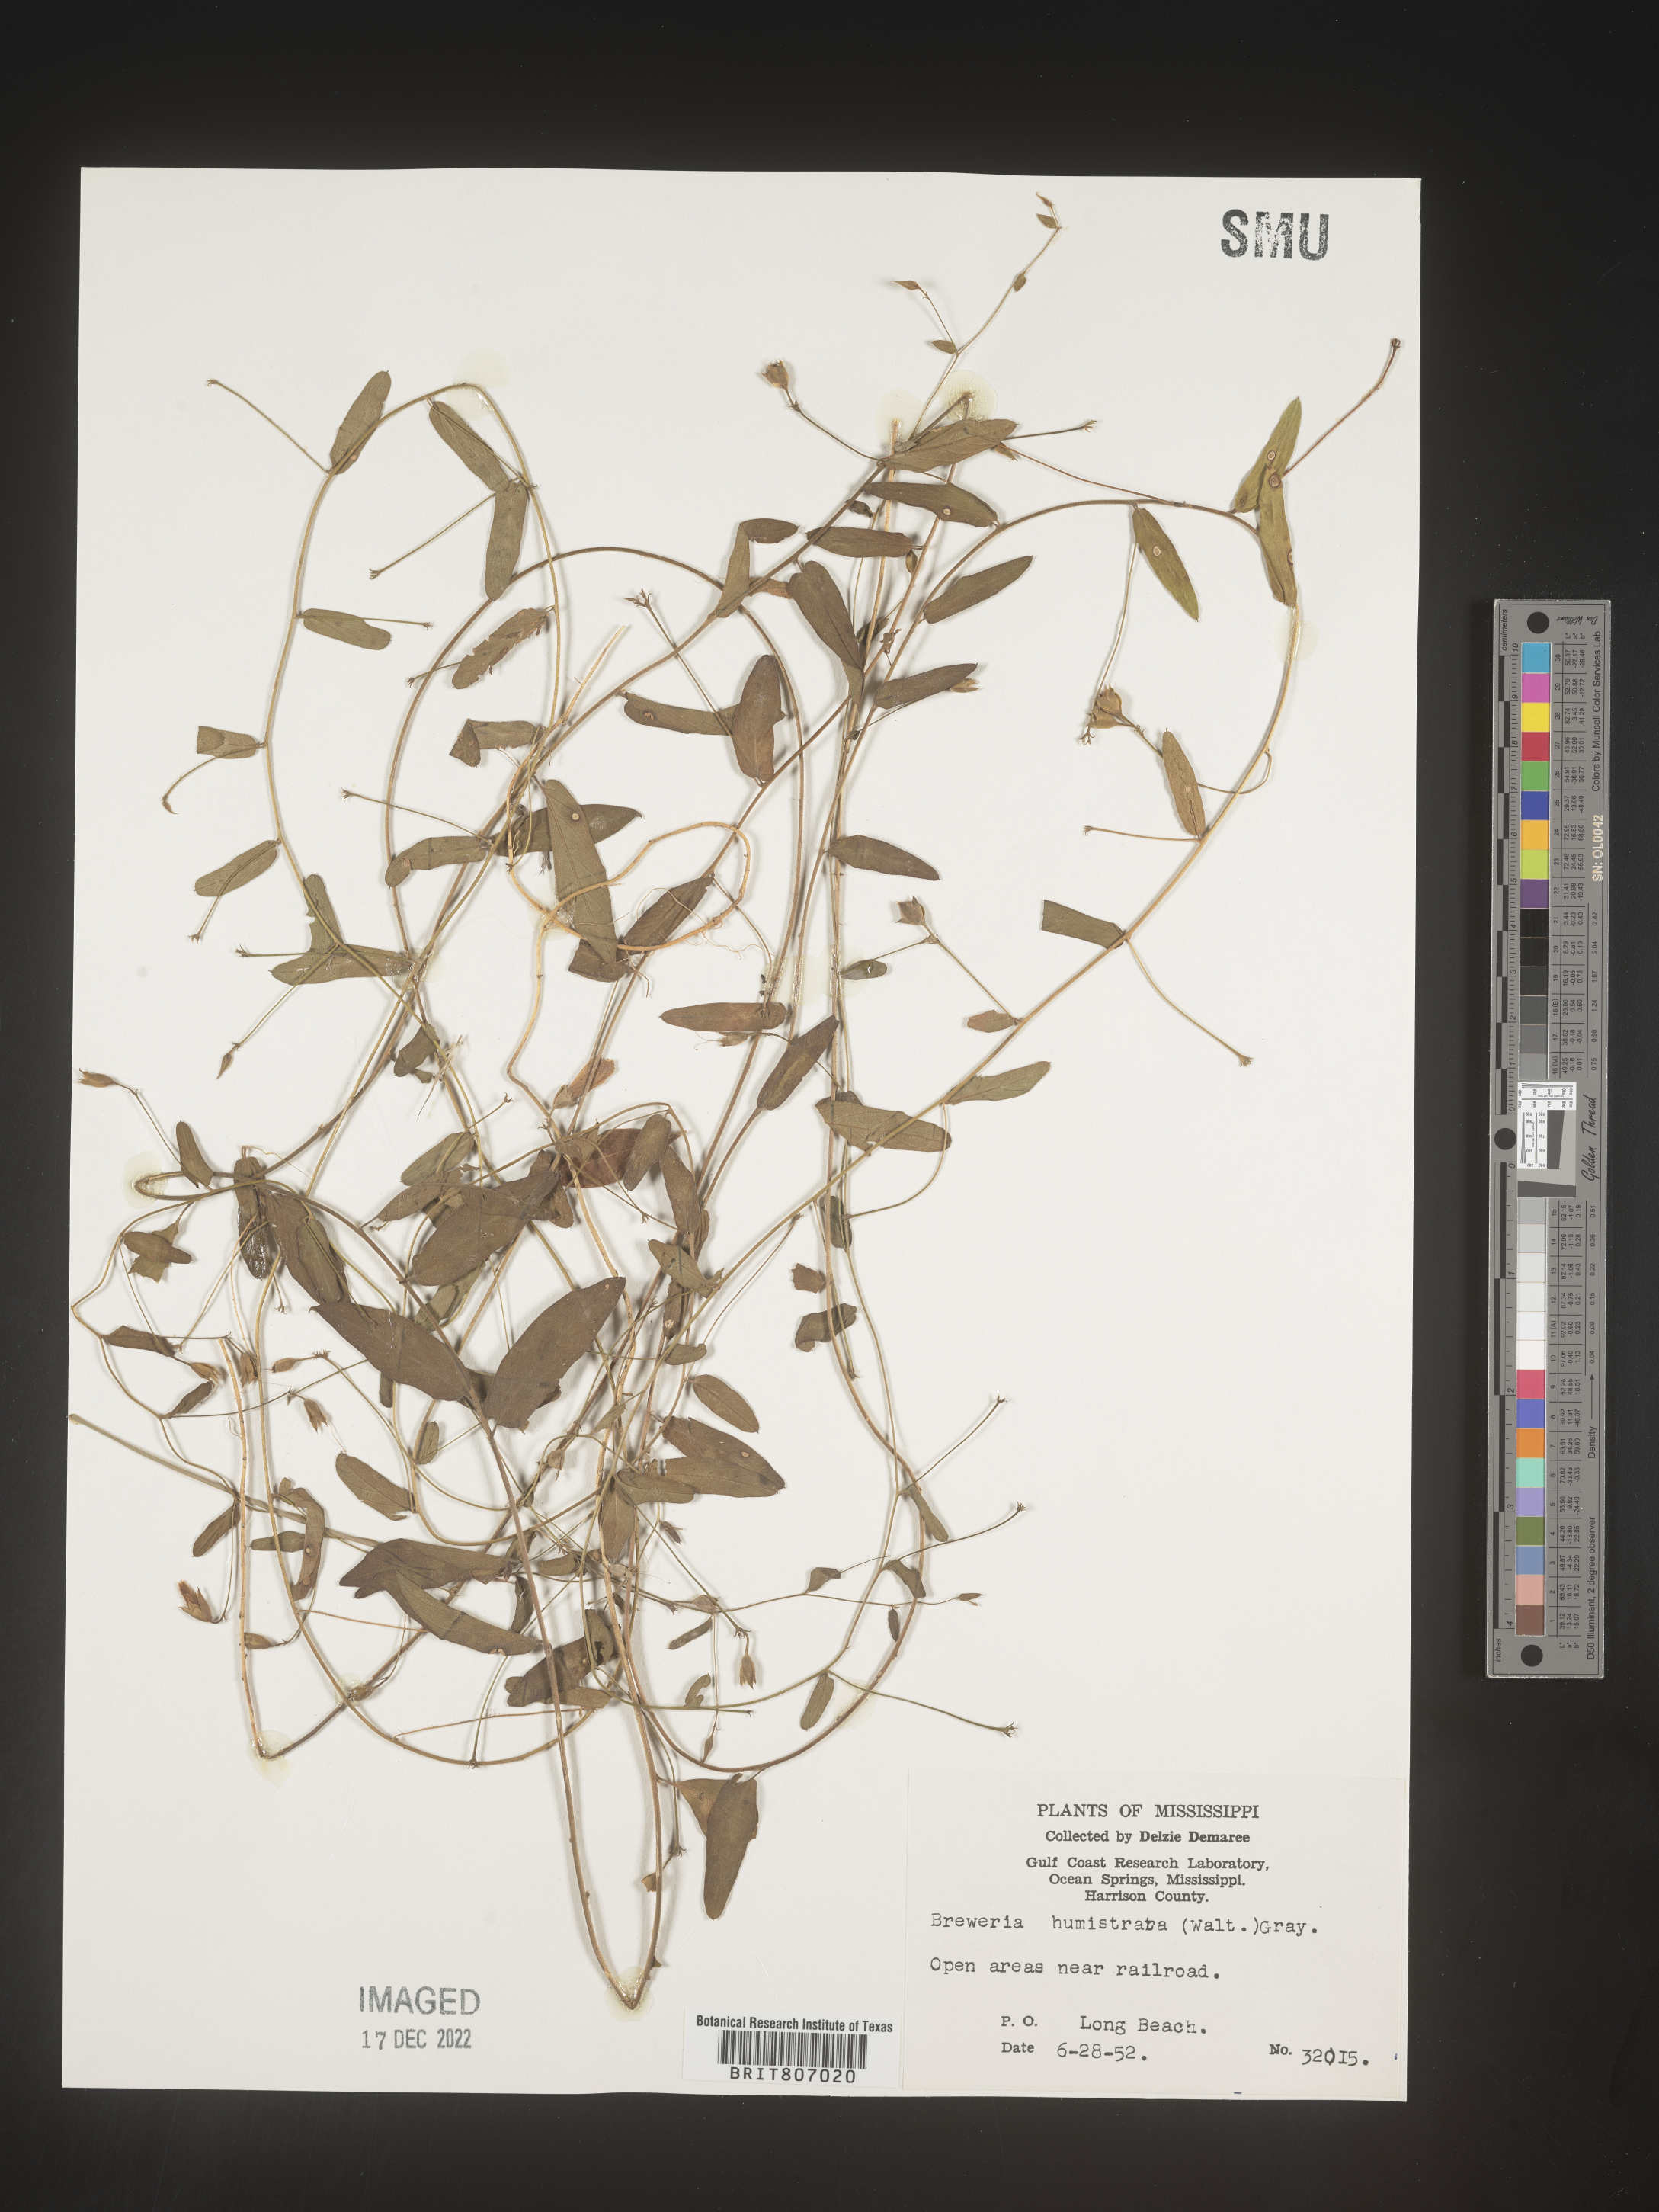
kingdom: Plantae
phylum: Tracheophyta
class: Magnoliopsida
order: Solanales
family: Convolvulaceae
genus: Stylisma
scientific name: Stylisma humistrata
